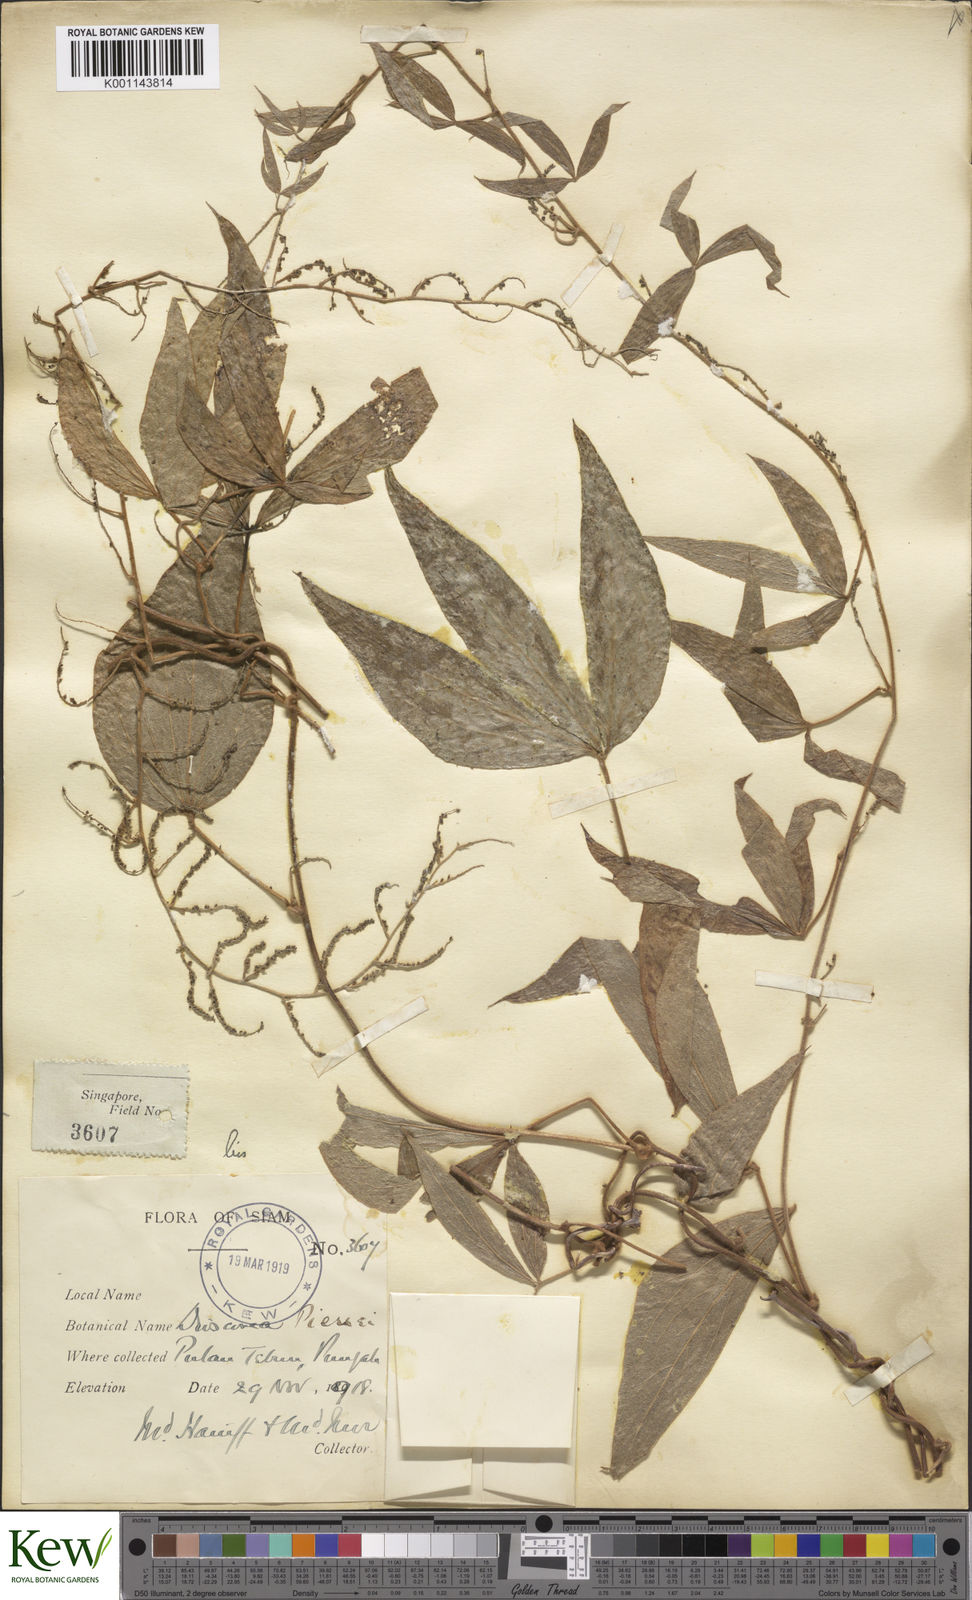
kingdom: Plantae
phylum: Tracheophyta
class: Liliopsida
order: Dioscoreales
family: Dioscoreaceae
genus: Dioscorea
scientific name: Dioscorea pierrei
